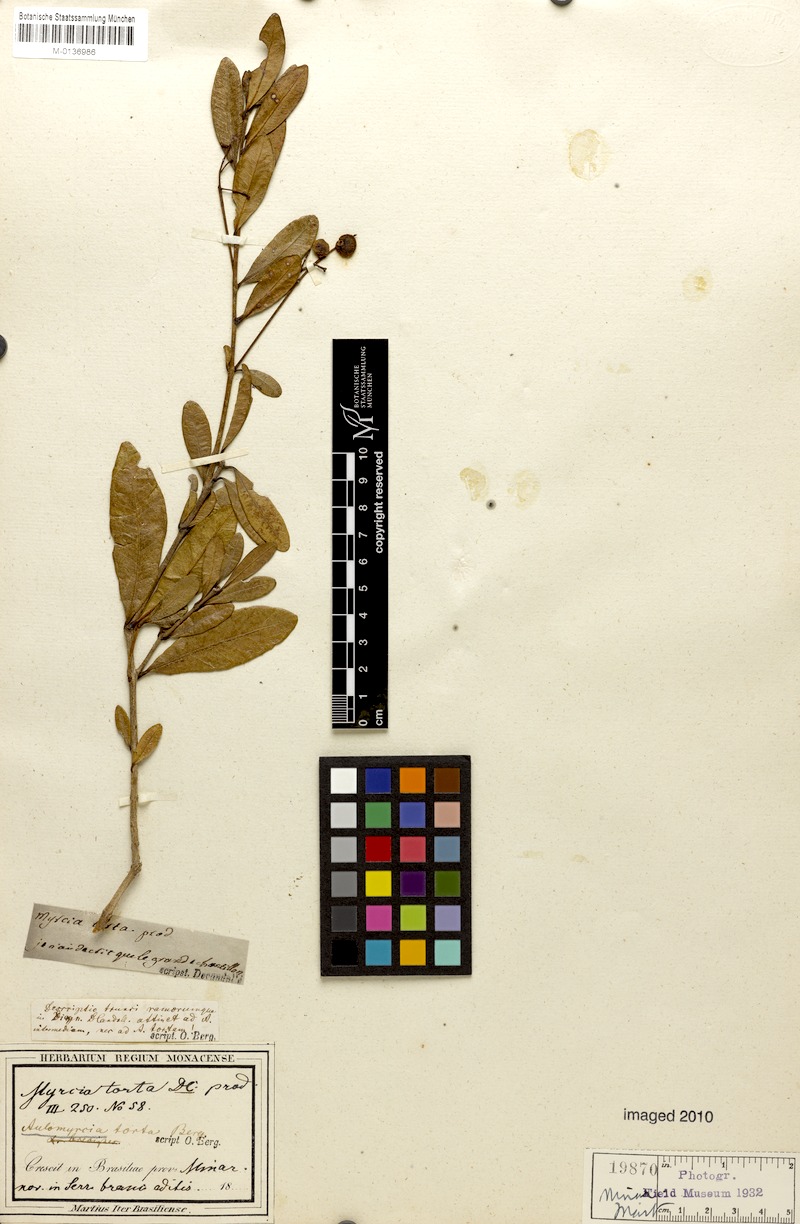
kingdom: Plantae
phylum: Tracheophyta
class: Magnoliopsida
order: Myrtales
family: Myrtaceae
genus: Myrcia
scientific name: Myrcia guianensis
